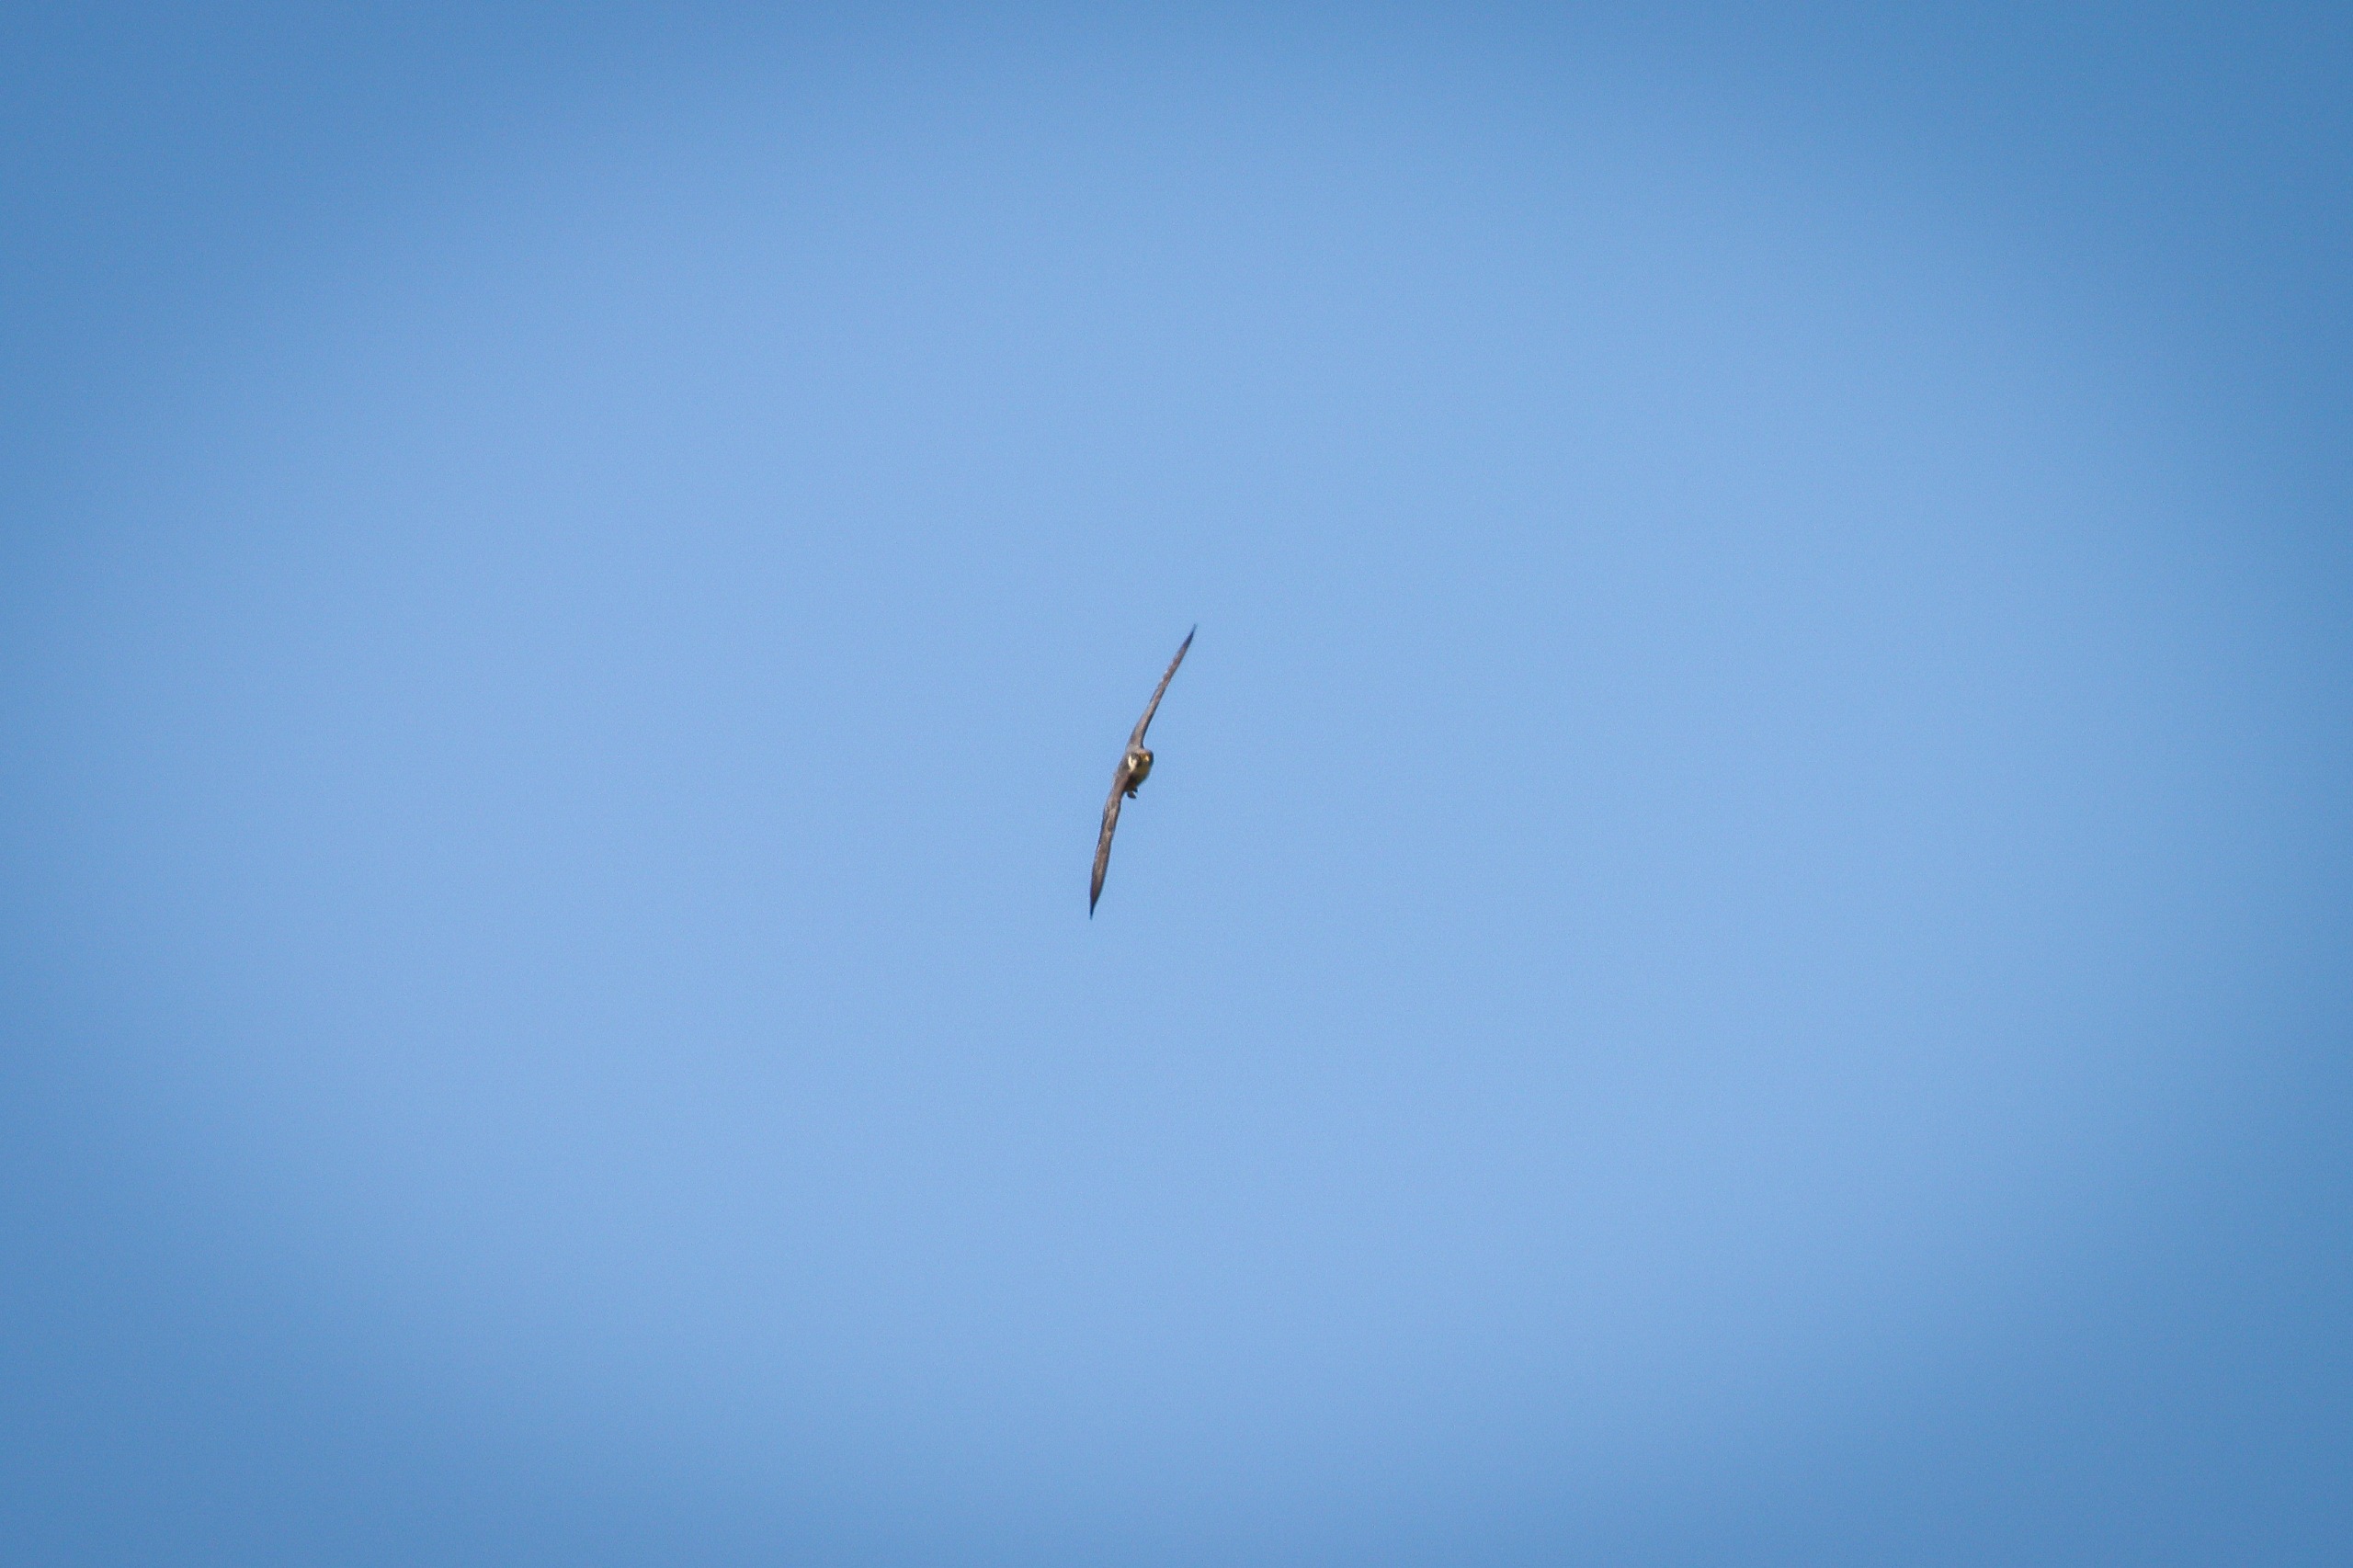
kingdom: Animalia
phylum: Chordata
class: Aves
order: Falconiformes
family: Falconidae
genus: Falco
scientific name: Falco subbuteo
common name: Lærkefalk
